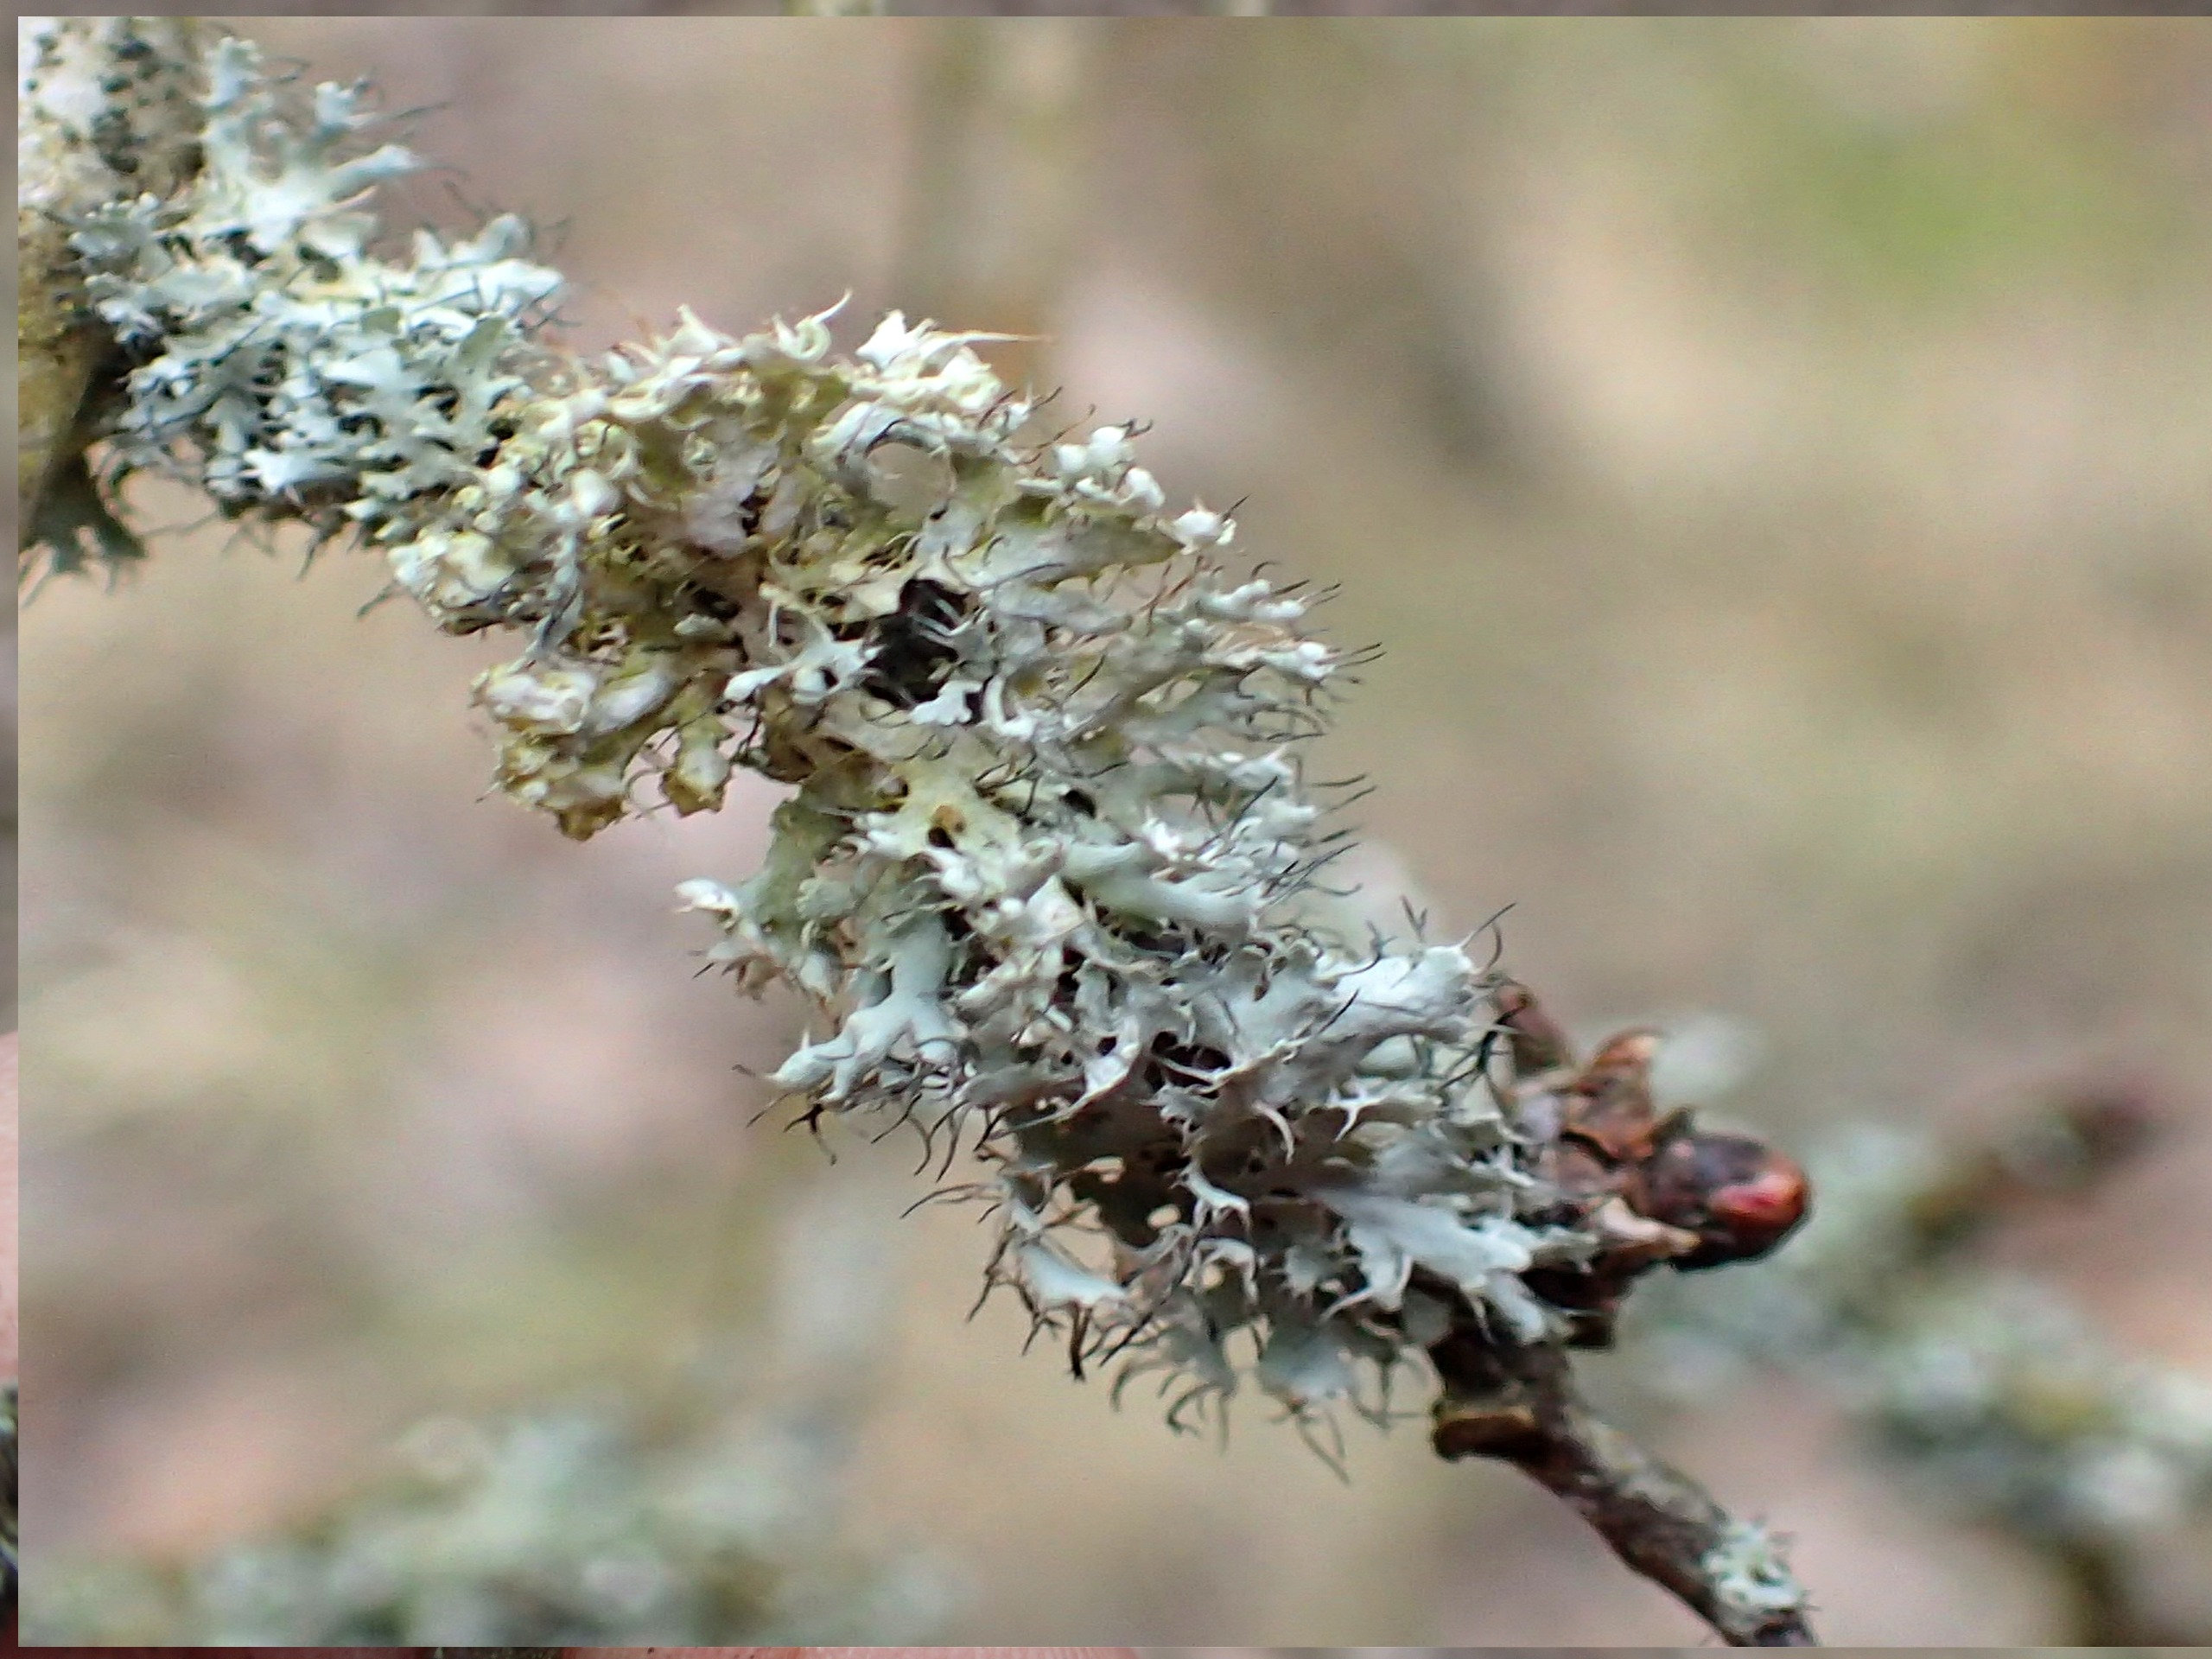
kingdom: Fungi
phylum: Ascomycota
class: Lecanoromycetes
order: Caliciales
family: Physciaceae
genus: Physcia
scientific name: Physcia adscendens
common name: Hætte-rosetlav
